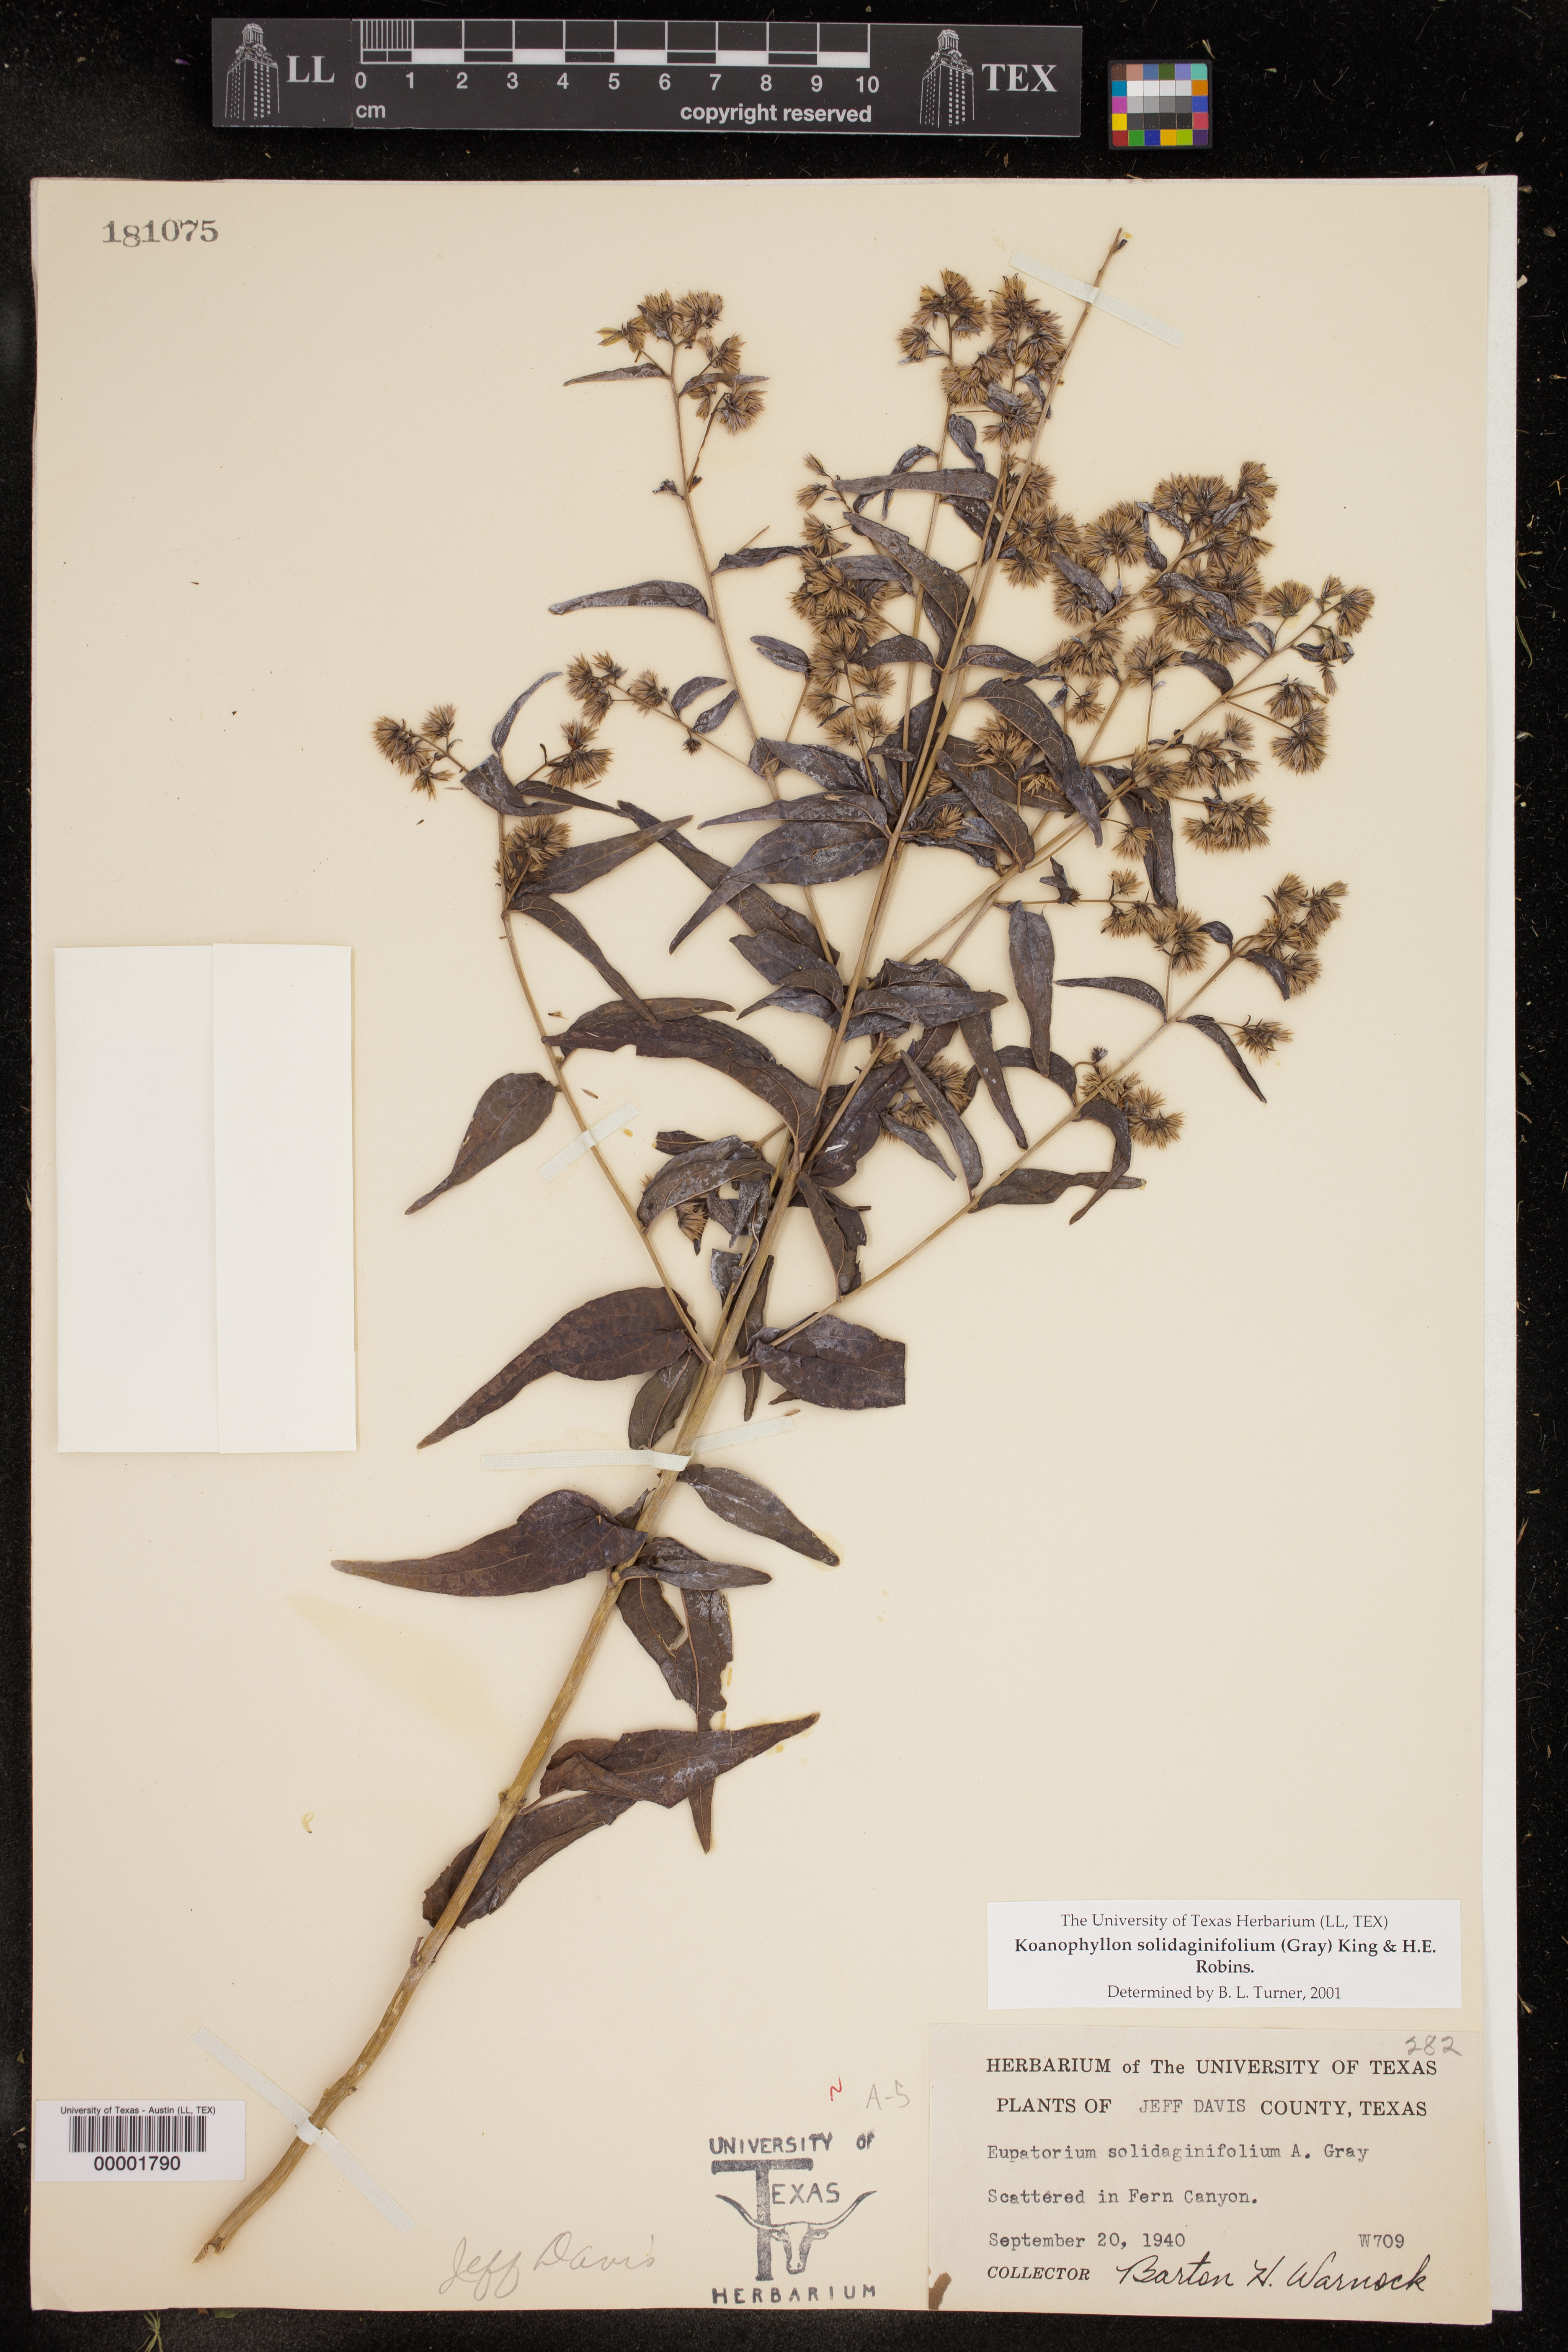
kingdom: Plantae
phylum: Tracheophyta
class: Magnoliopsida
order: Asterales
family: Asteraceae
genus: Koanophyllon
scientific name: Koanophyllon solidaginifolium
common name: Shrubby umbrella thoroughwort
